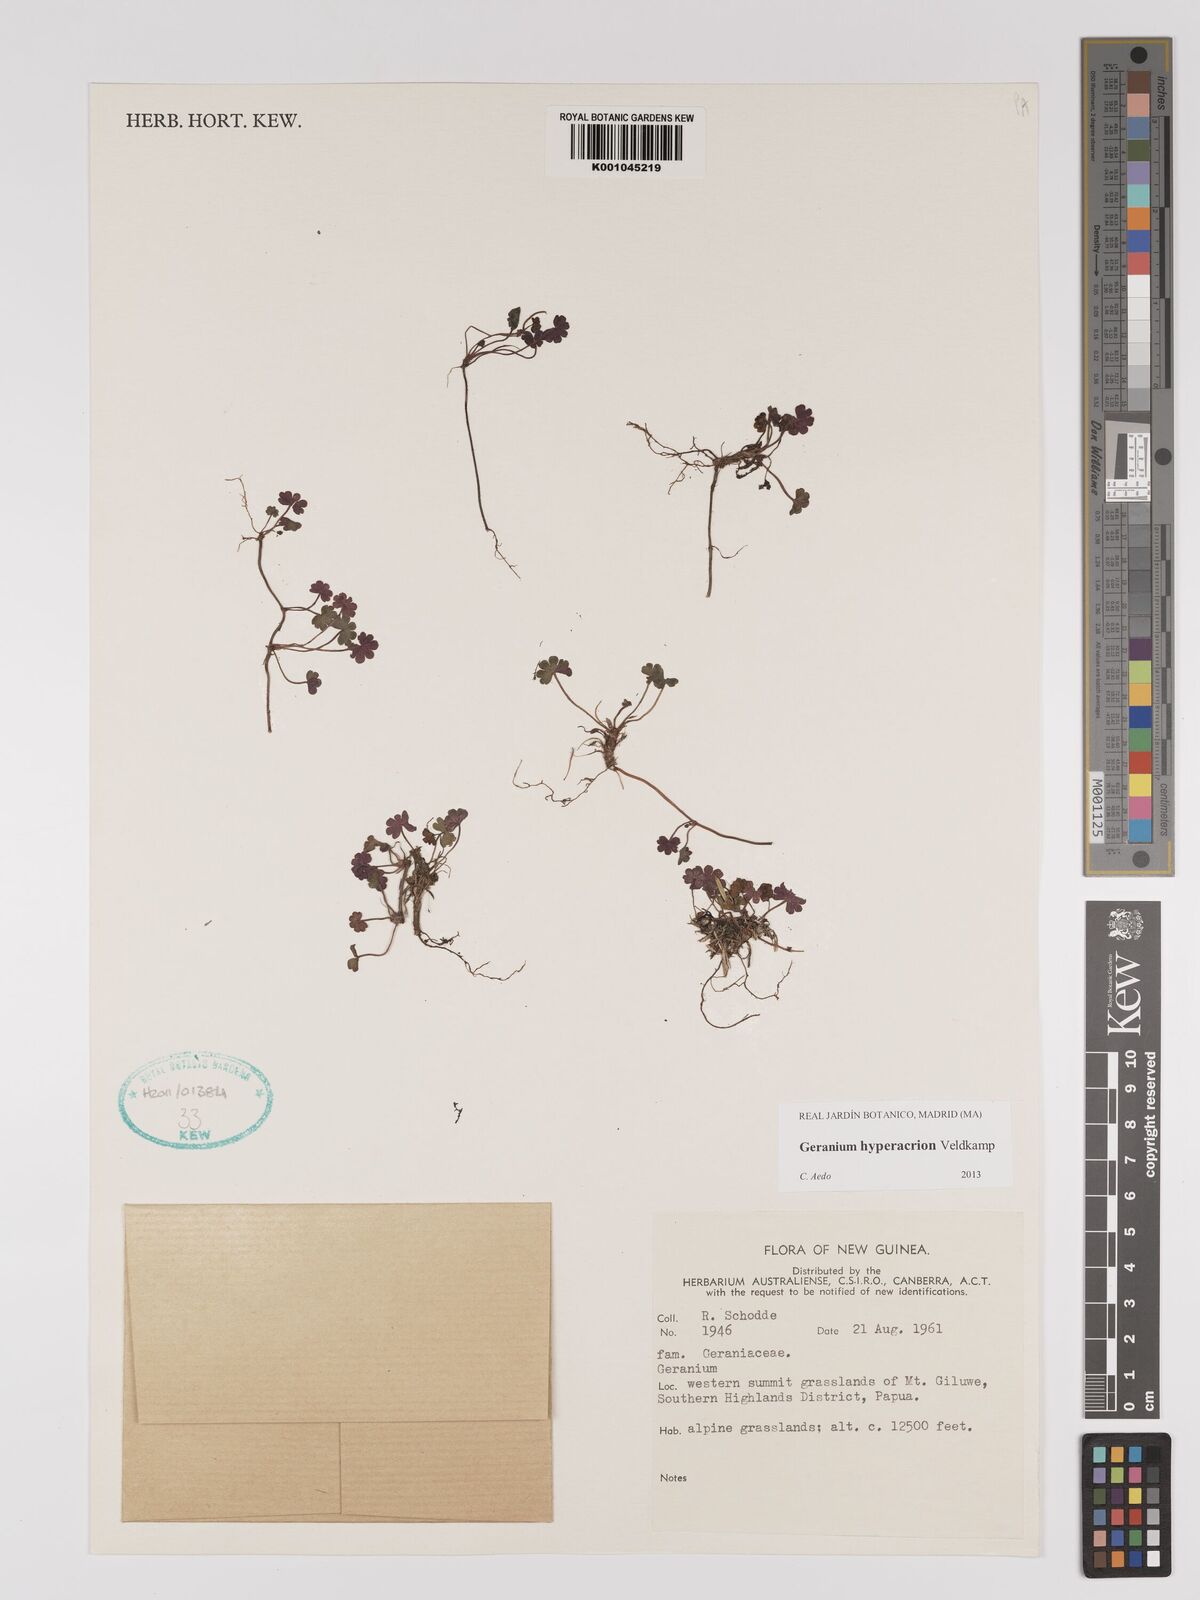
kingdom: Plantae
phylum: Tracheophyta
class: Magnoliopsida
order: Geraniales
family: Geraniaceae
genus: Geranium
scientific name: Geranium hyperacrion
